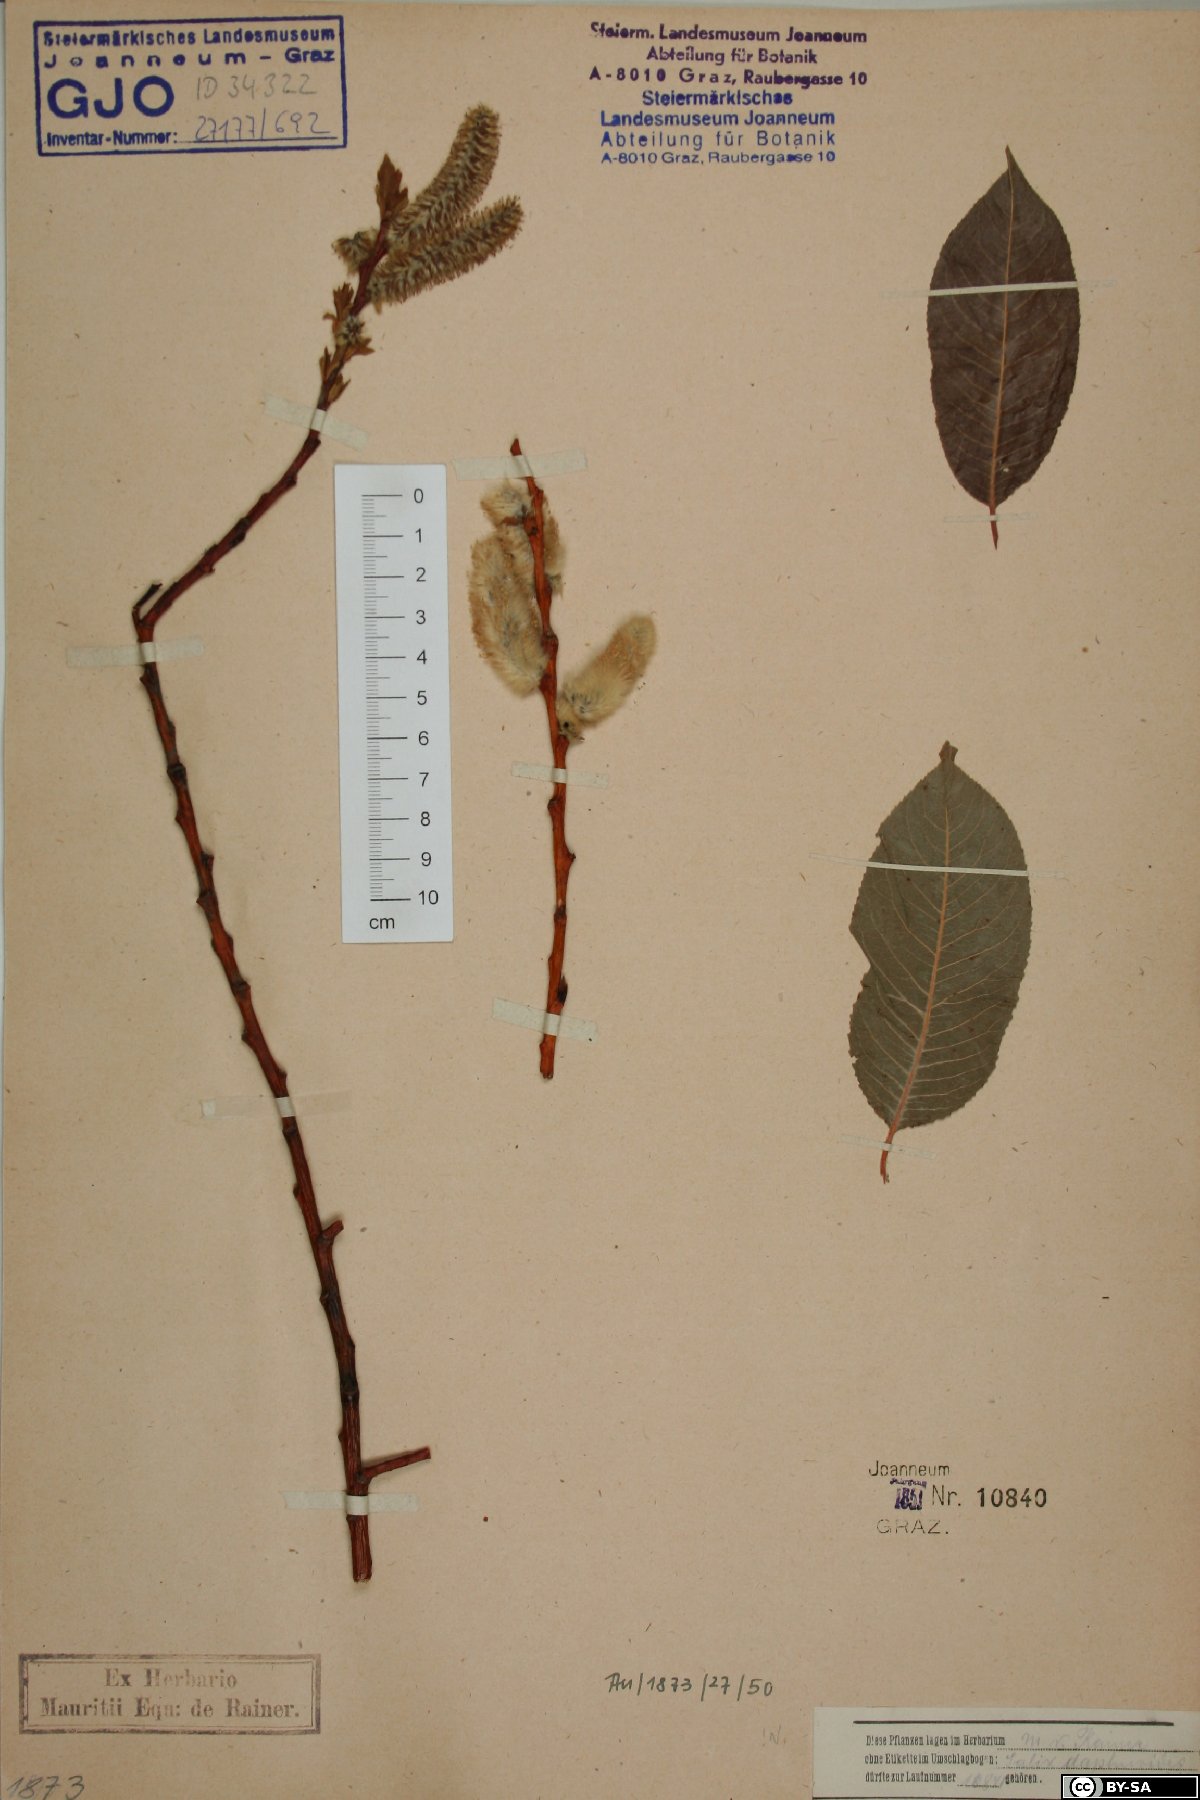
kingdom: Plantae
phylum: Tracheophyta
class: Magnoliopsida
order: Malpighiales
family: Salicaceae
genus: Salix
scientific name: Salix daphnoides
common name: European violet-willow
